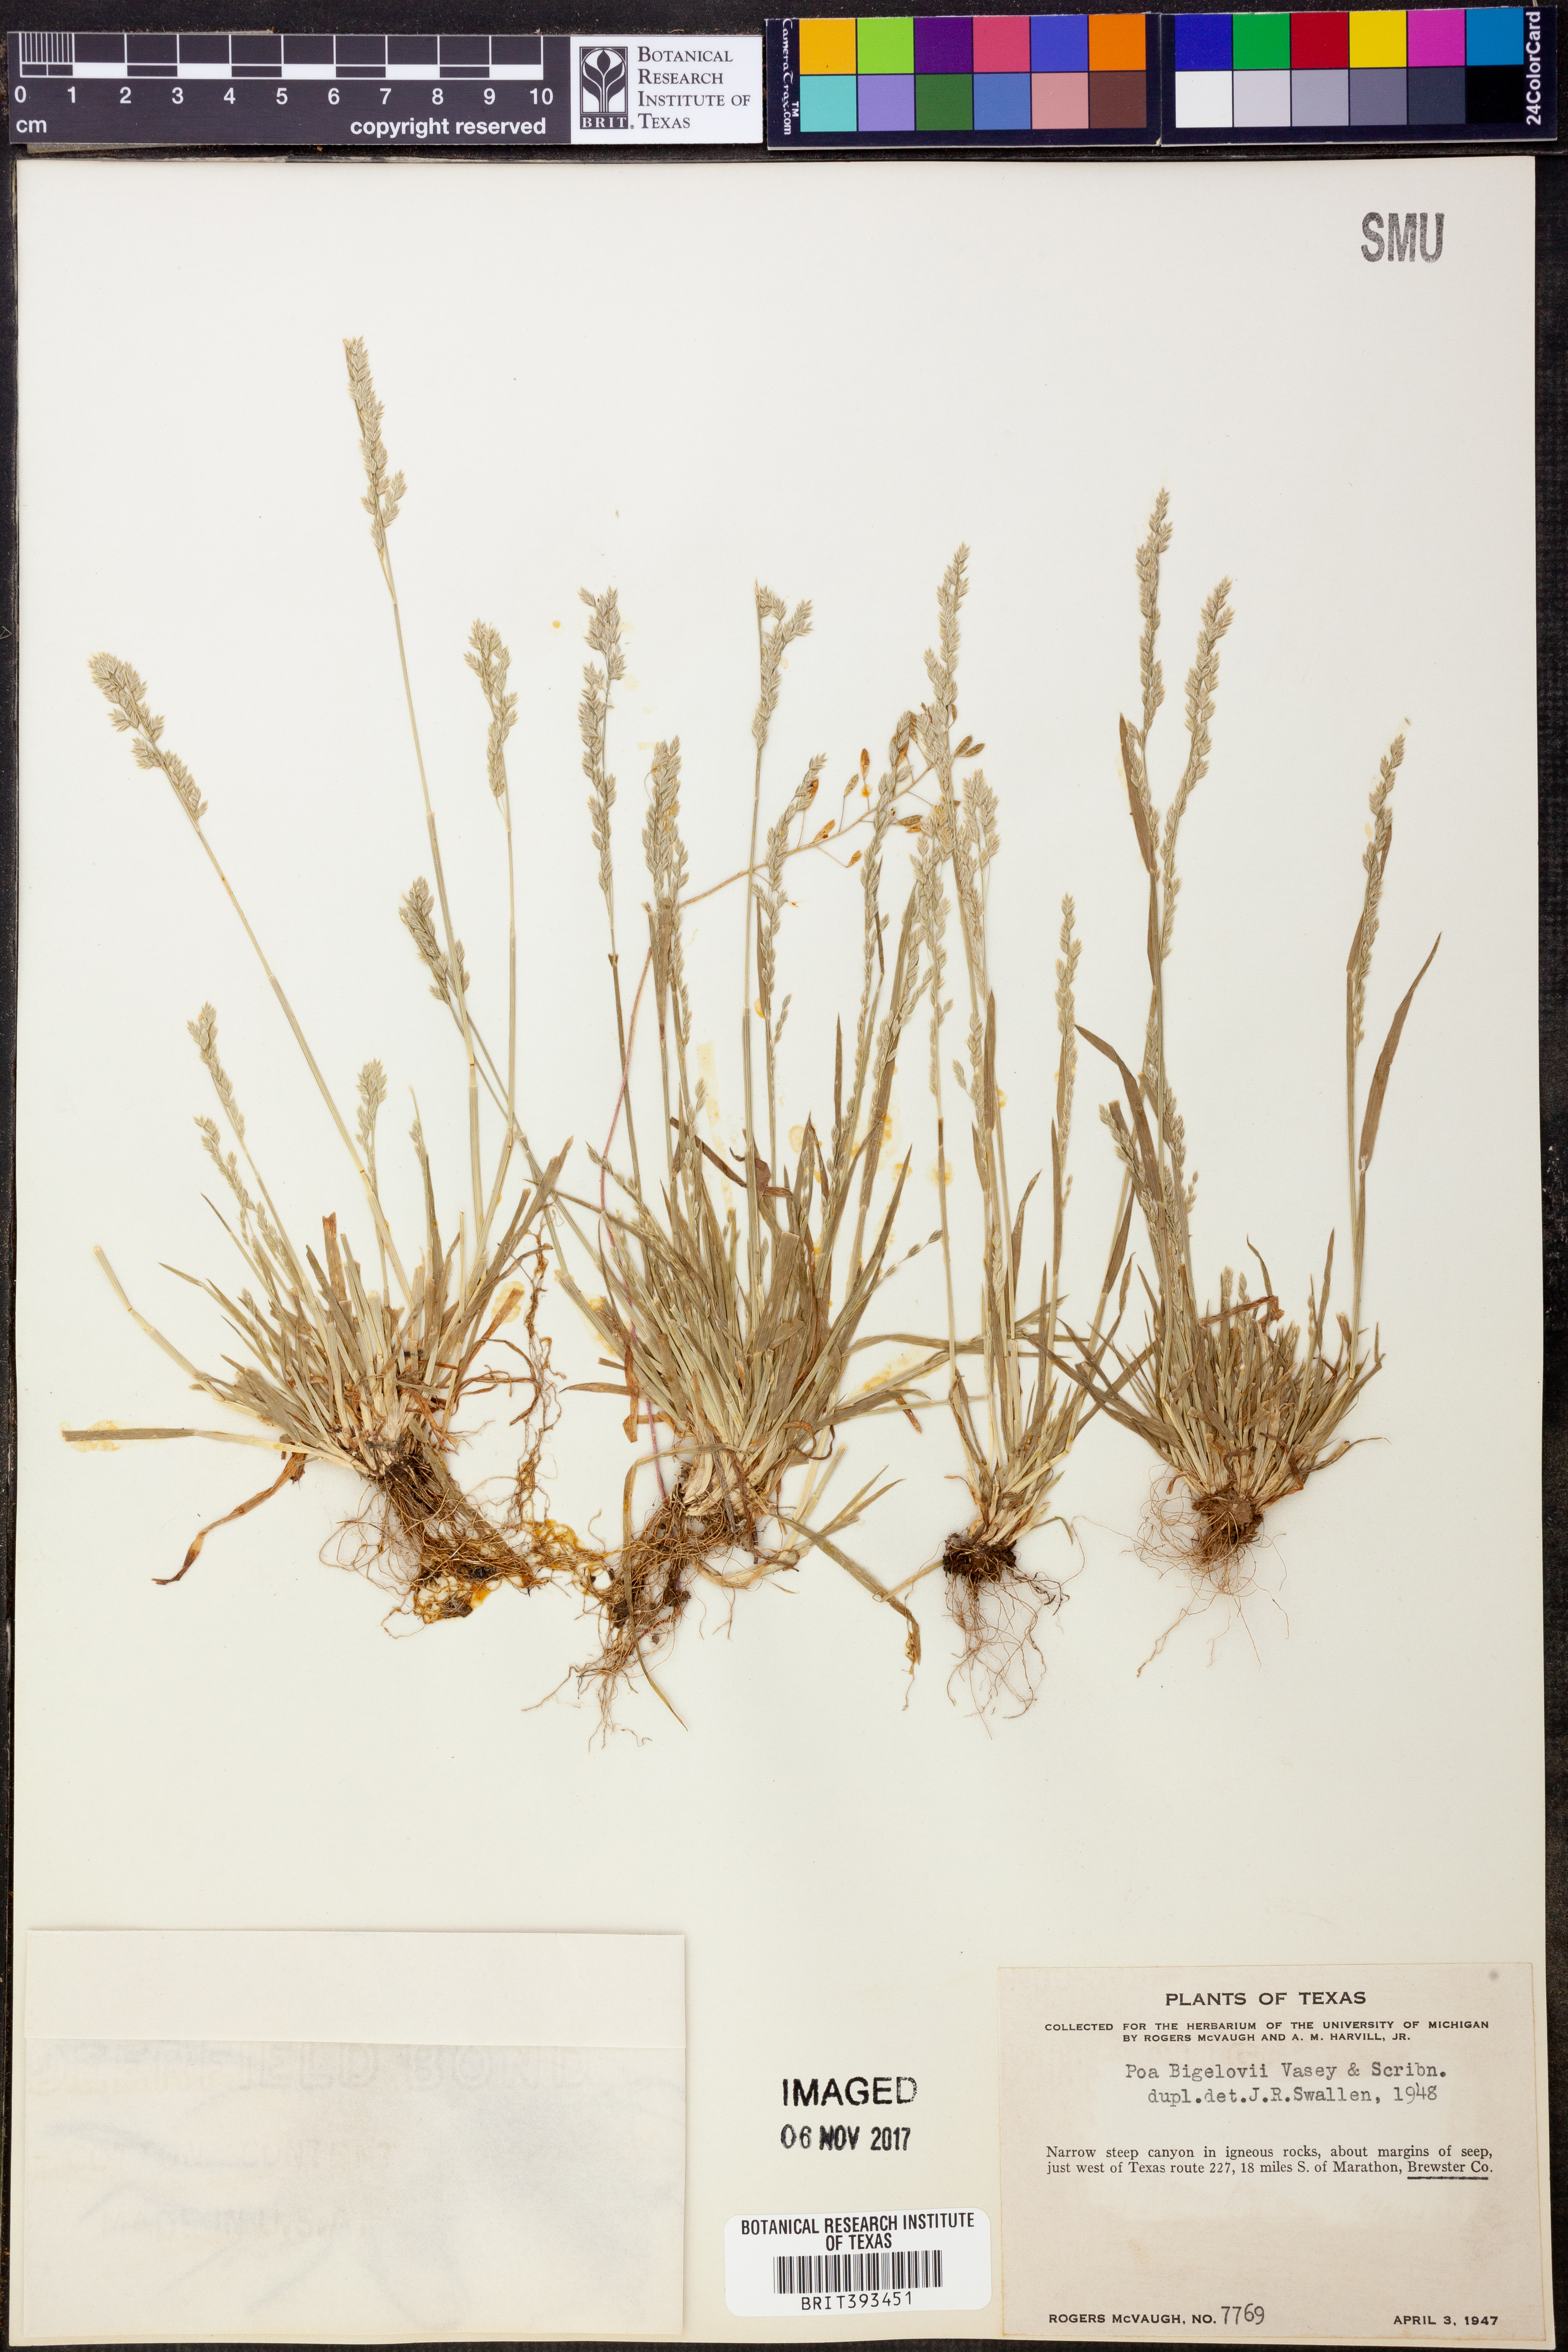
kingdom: Plantae
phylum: Tracheophyta
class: Liliopsida
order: Poales
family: Poaceae
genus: Poa
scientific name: Poa bigelovii
